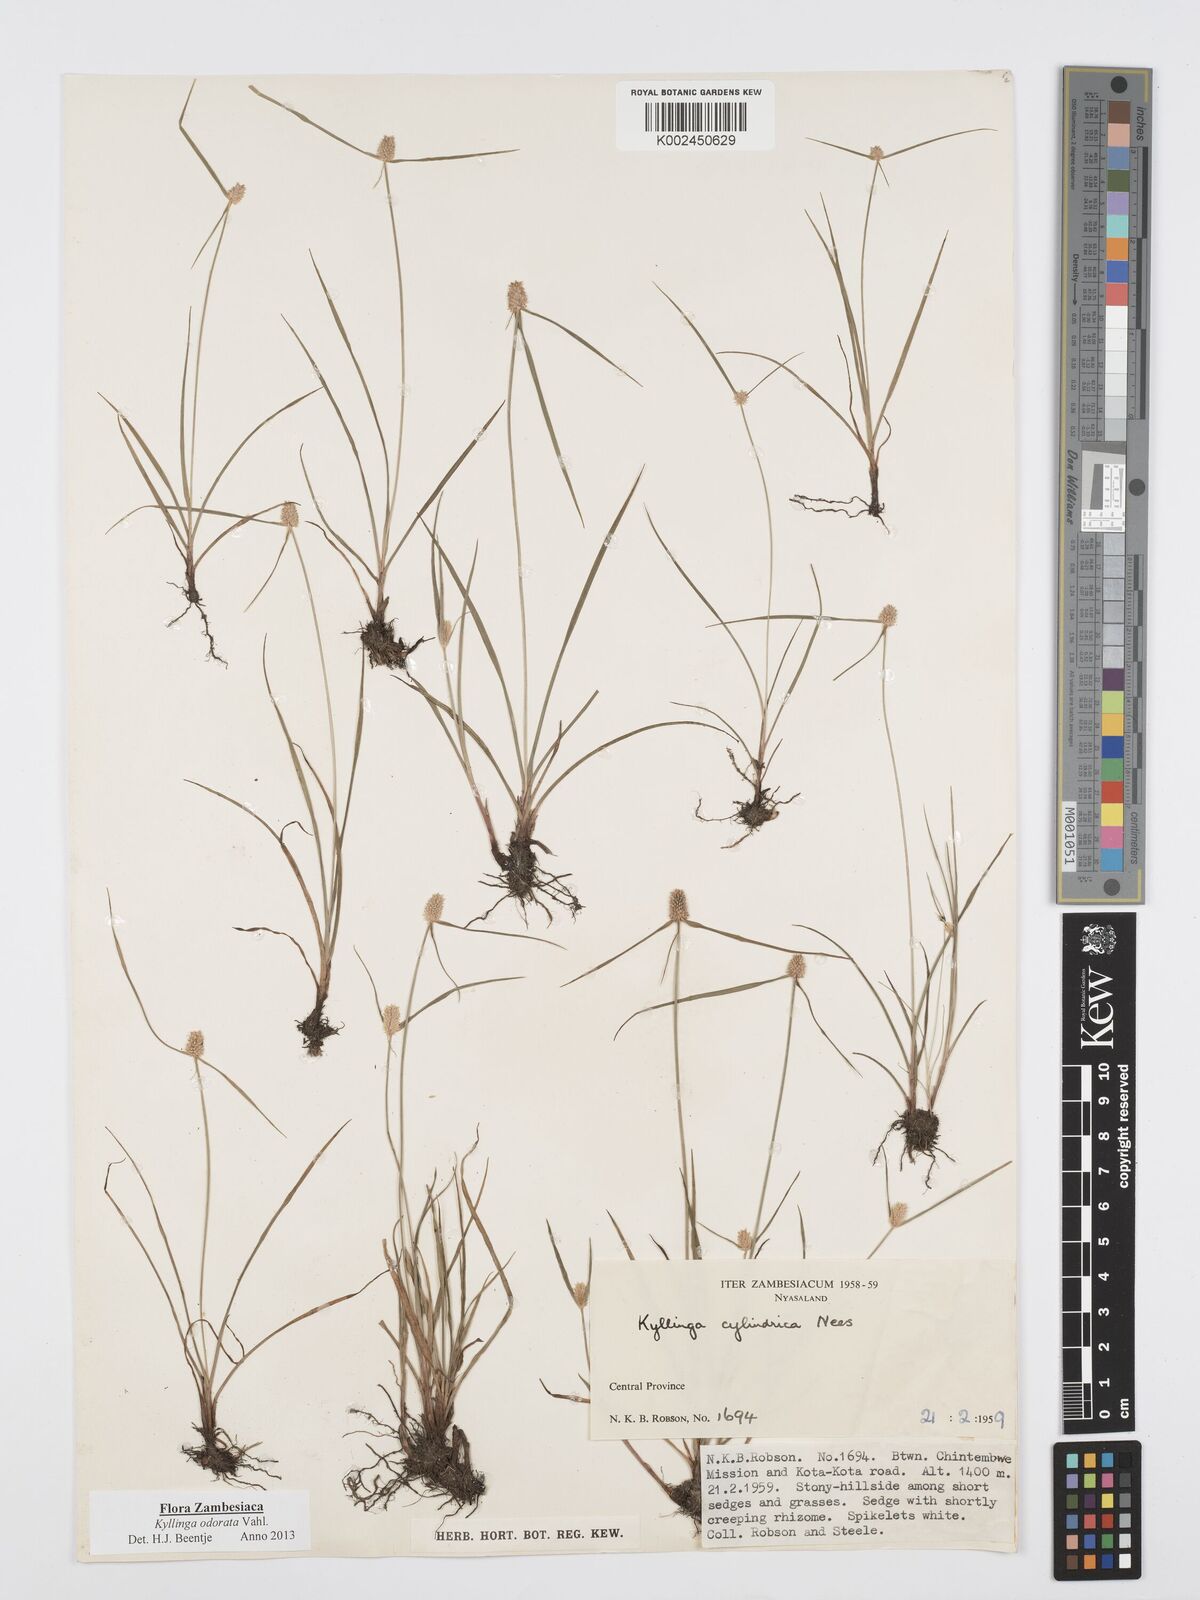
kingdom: Plantae
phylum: Tracheophyta
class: Liliopsida
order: Poales
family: Cyperaceae
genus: Cyperus
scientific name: Cyperus
